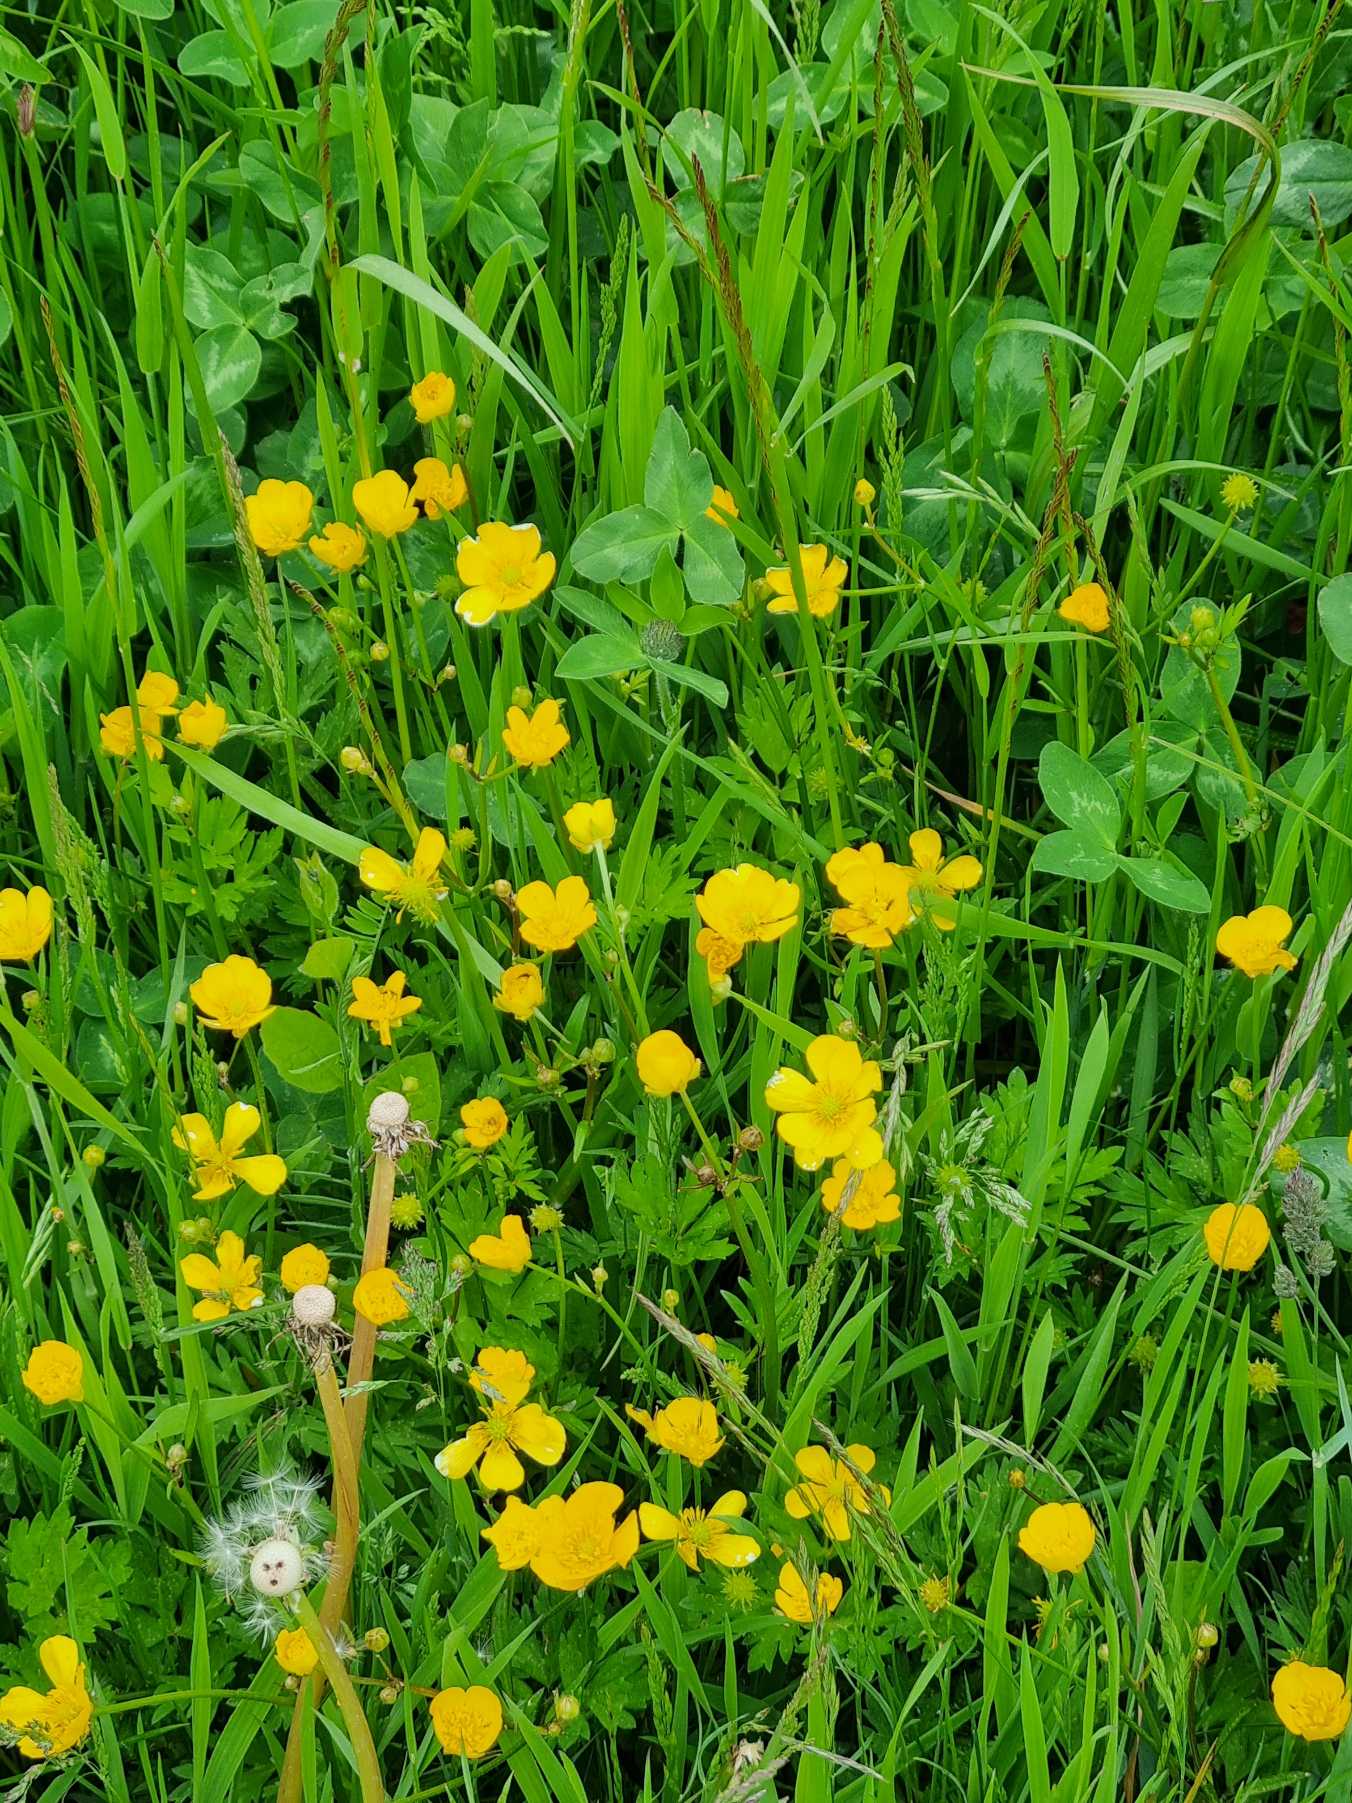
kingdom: Plantae
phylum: Tracheophyta
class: Magnoliopsida
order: Ranunculales
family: Ranunculaceae
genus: Ranunculus
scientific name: Ranunculus repens
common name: Lav ranunkel
